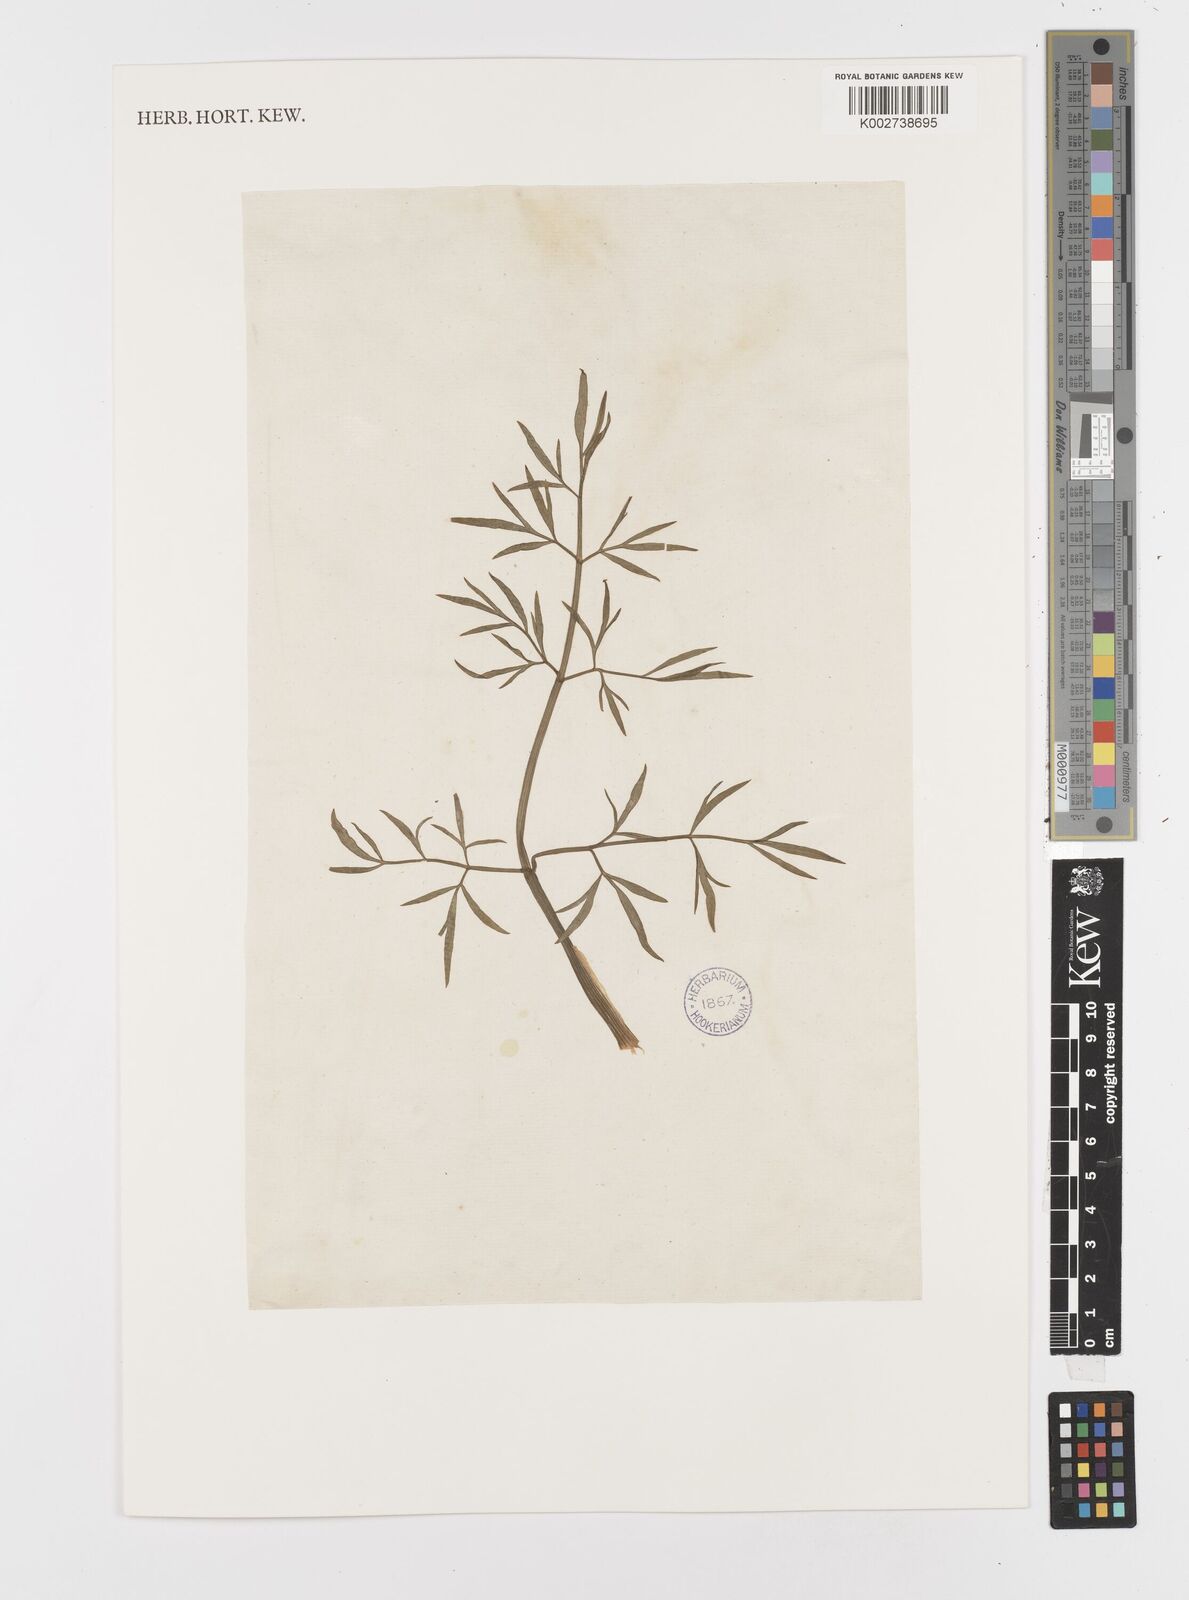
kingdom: Plantae
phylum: Tracheophyta
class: Magnoliopsida
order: Apiales
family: Apiaceae
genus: Oenanthe
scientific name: Oenanthe pimpinelloides
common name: Corky-fruited water-dropwort
